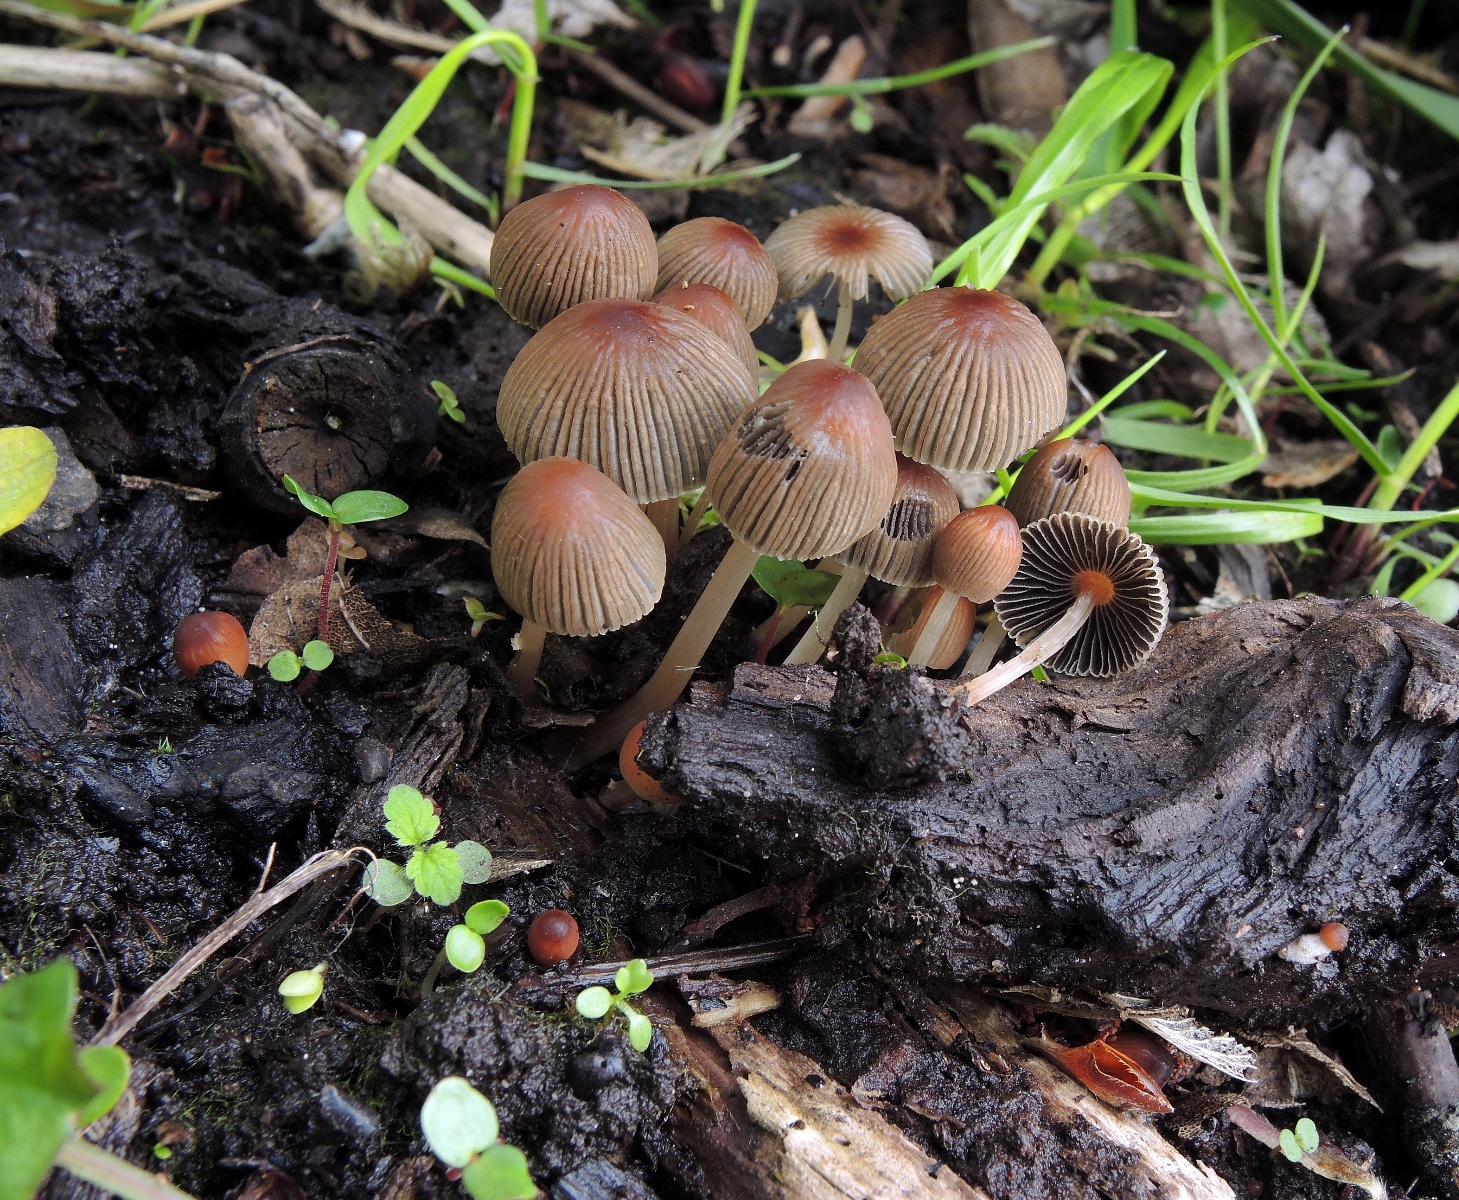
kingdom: Fungi
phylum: Basidiomycota
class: Agaricomycetes
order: Agaricales
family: Psathyrellaceae
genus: Parasola
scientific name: Parasola kuehneri
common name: skygge-hjulhat
